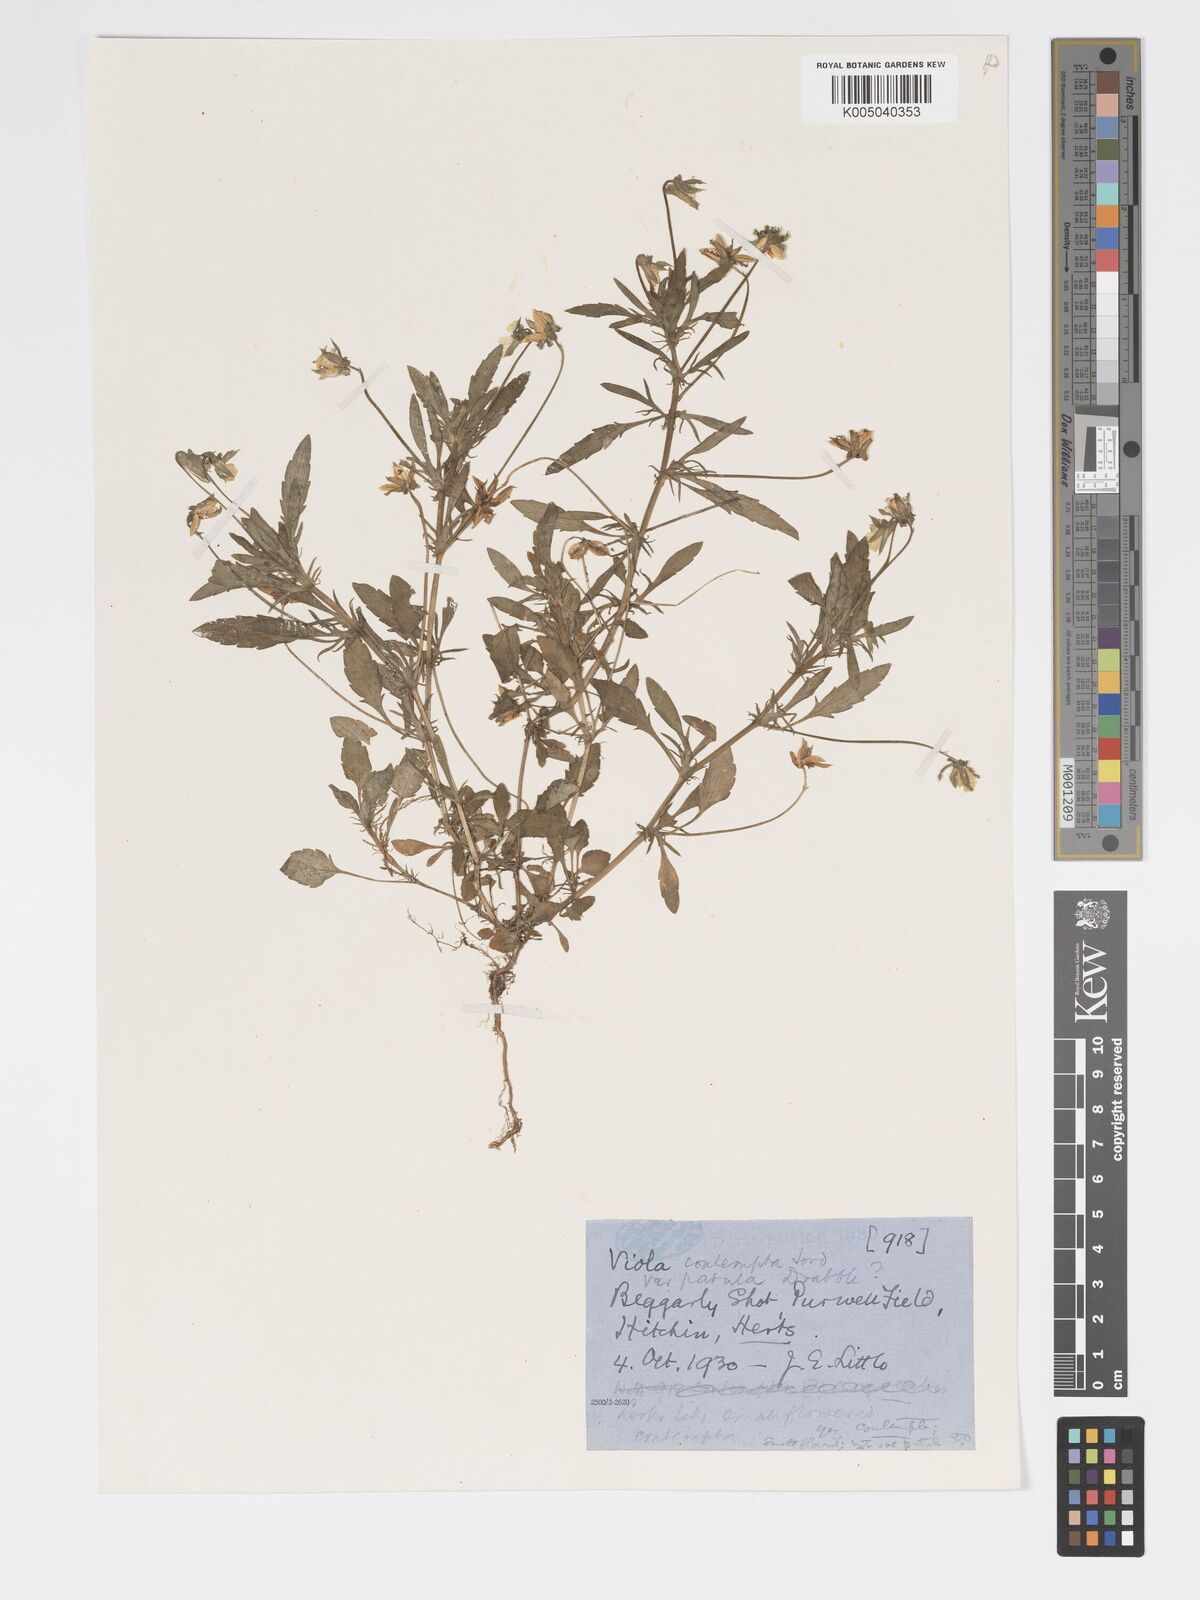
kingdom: Plantae
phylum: Tracheophyta
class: Magnoliopsida
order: Malpighiales
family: Violaceae
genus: Viola
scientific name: Viola arvensis
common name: Field pansy
